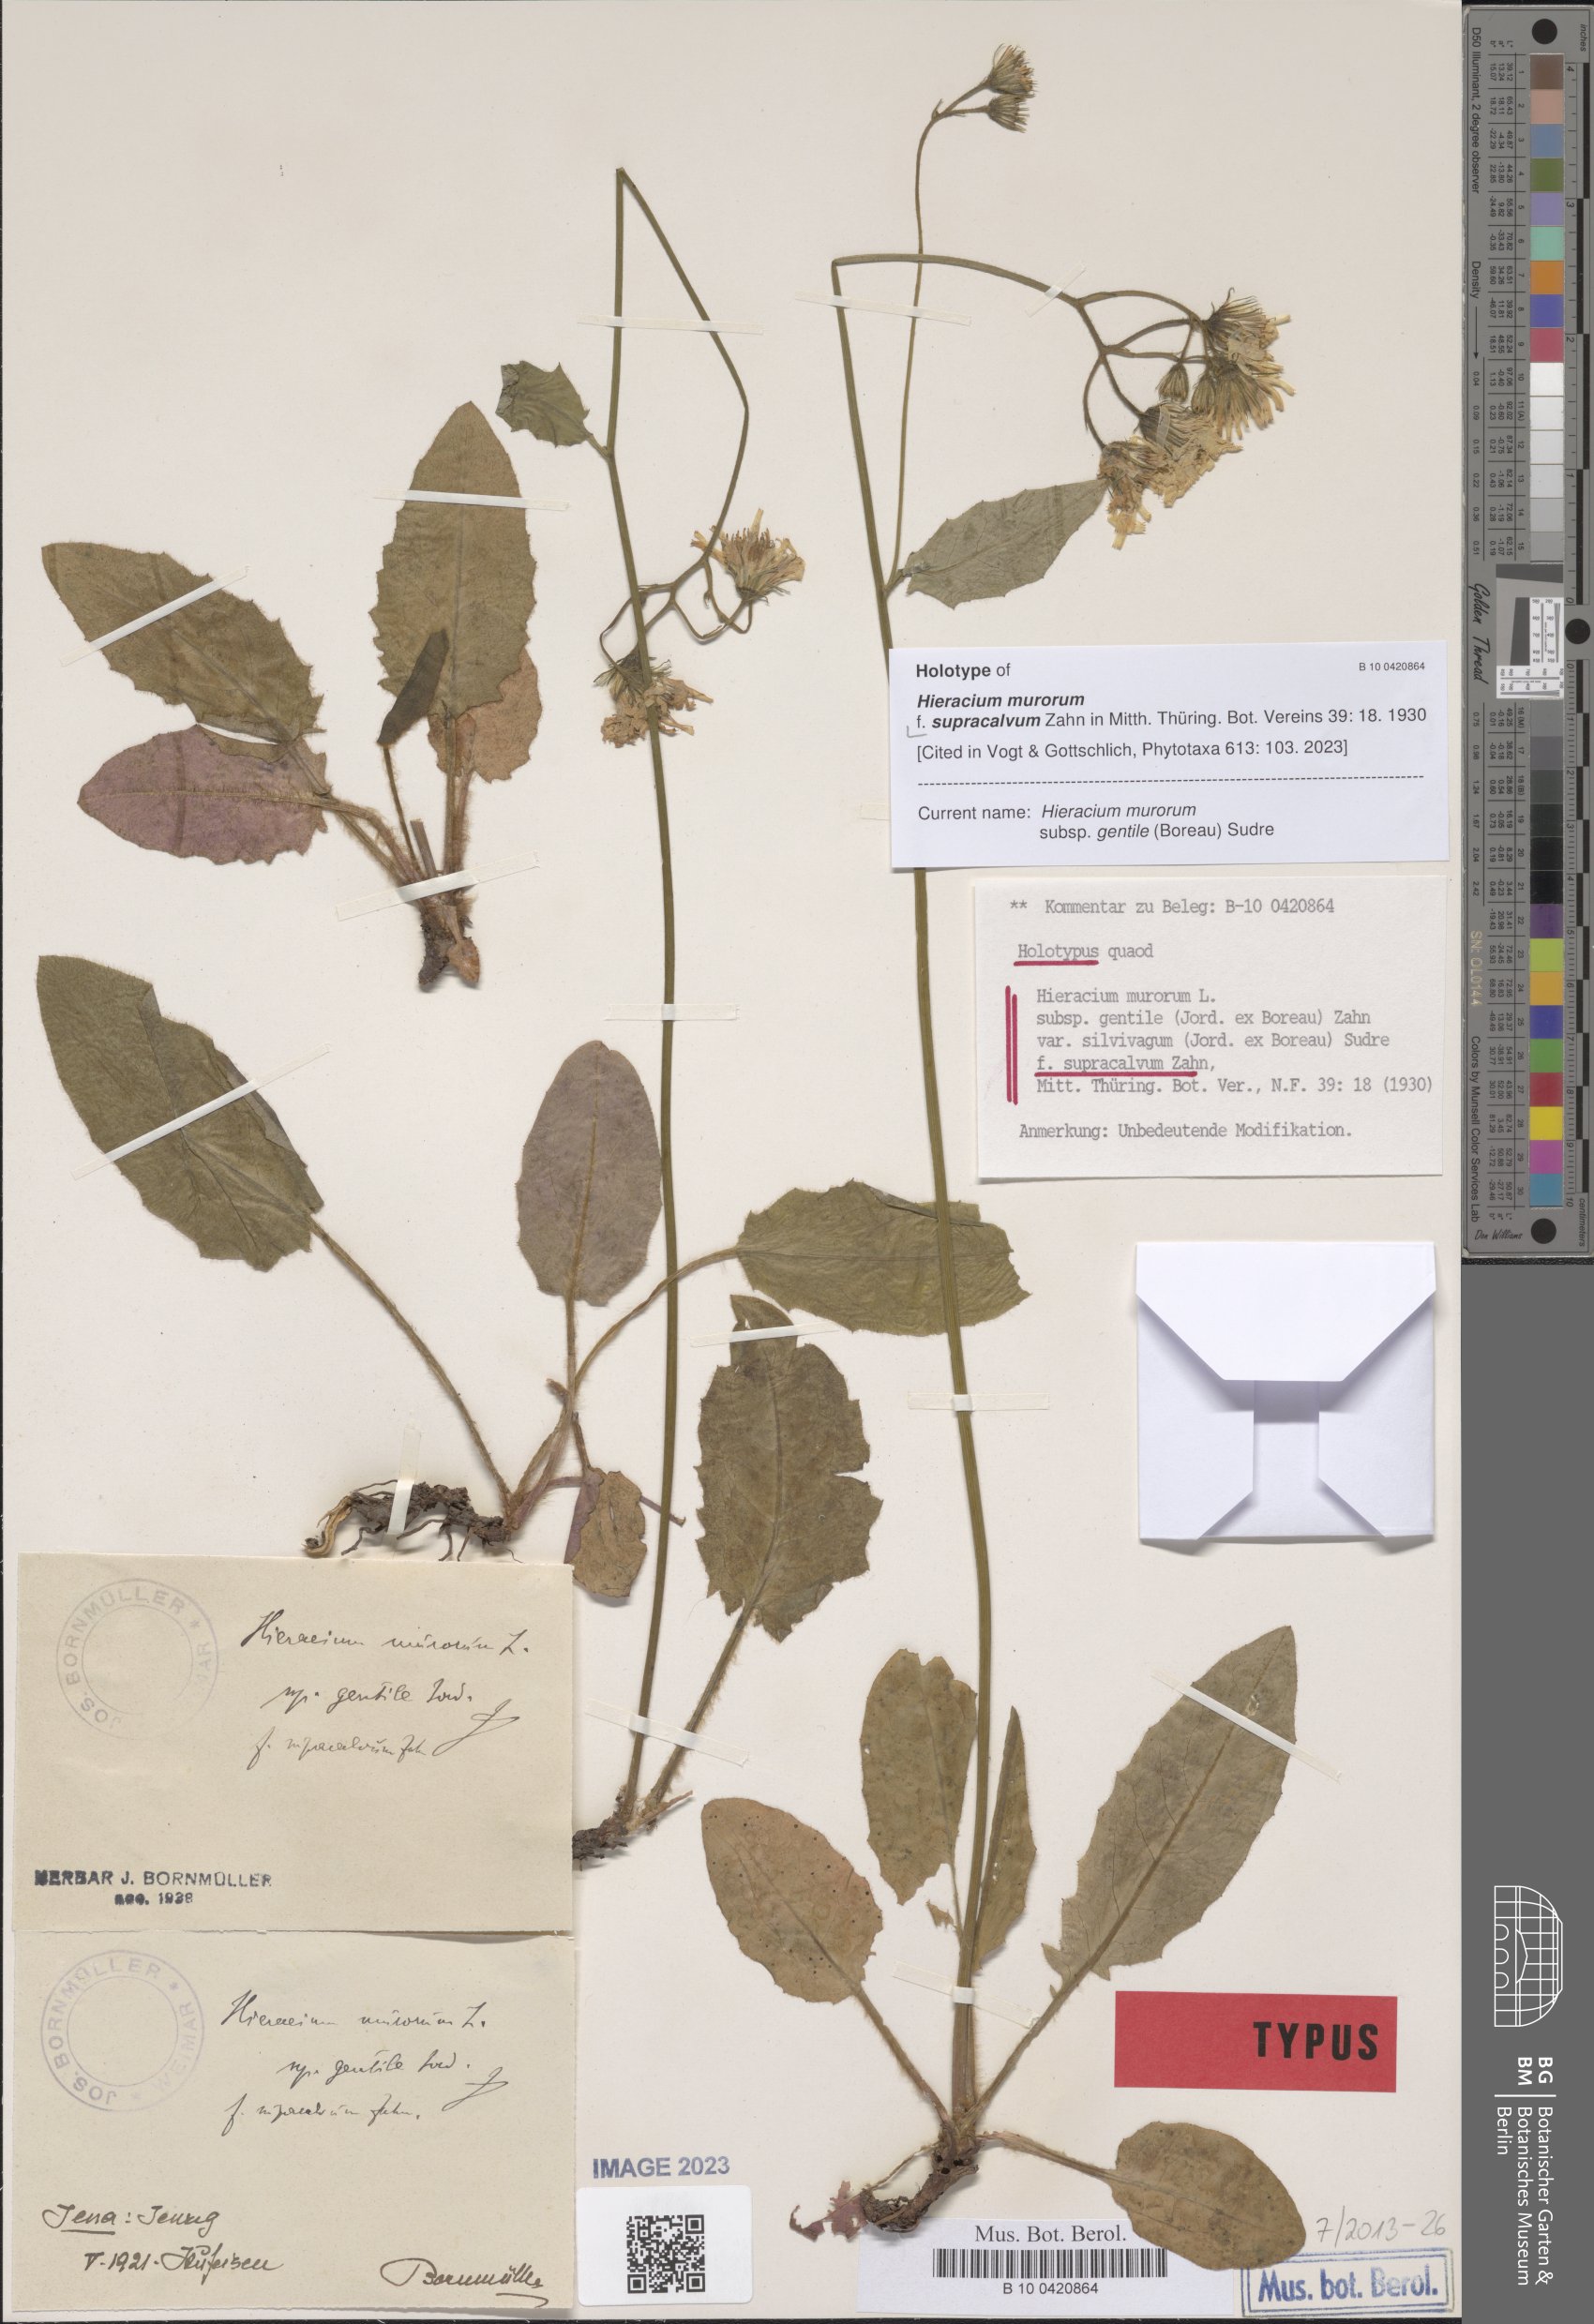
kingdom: Plantae
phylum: Tracheophyta
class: Magnoliopsida
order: Asterales
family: Asteraceae
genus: Hieracium
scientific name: Hieracium murorum
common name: Wall hawkweed
